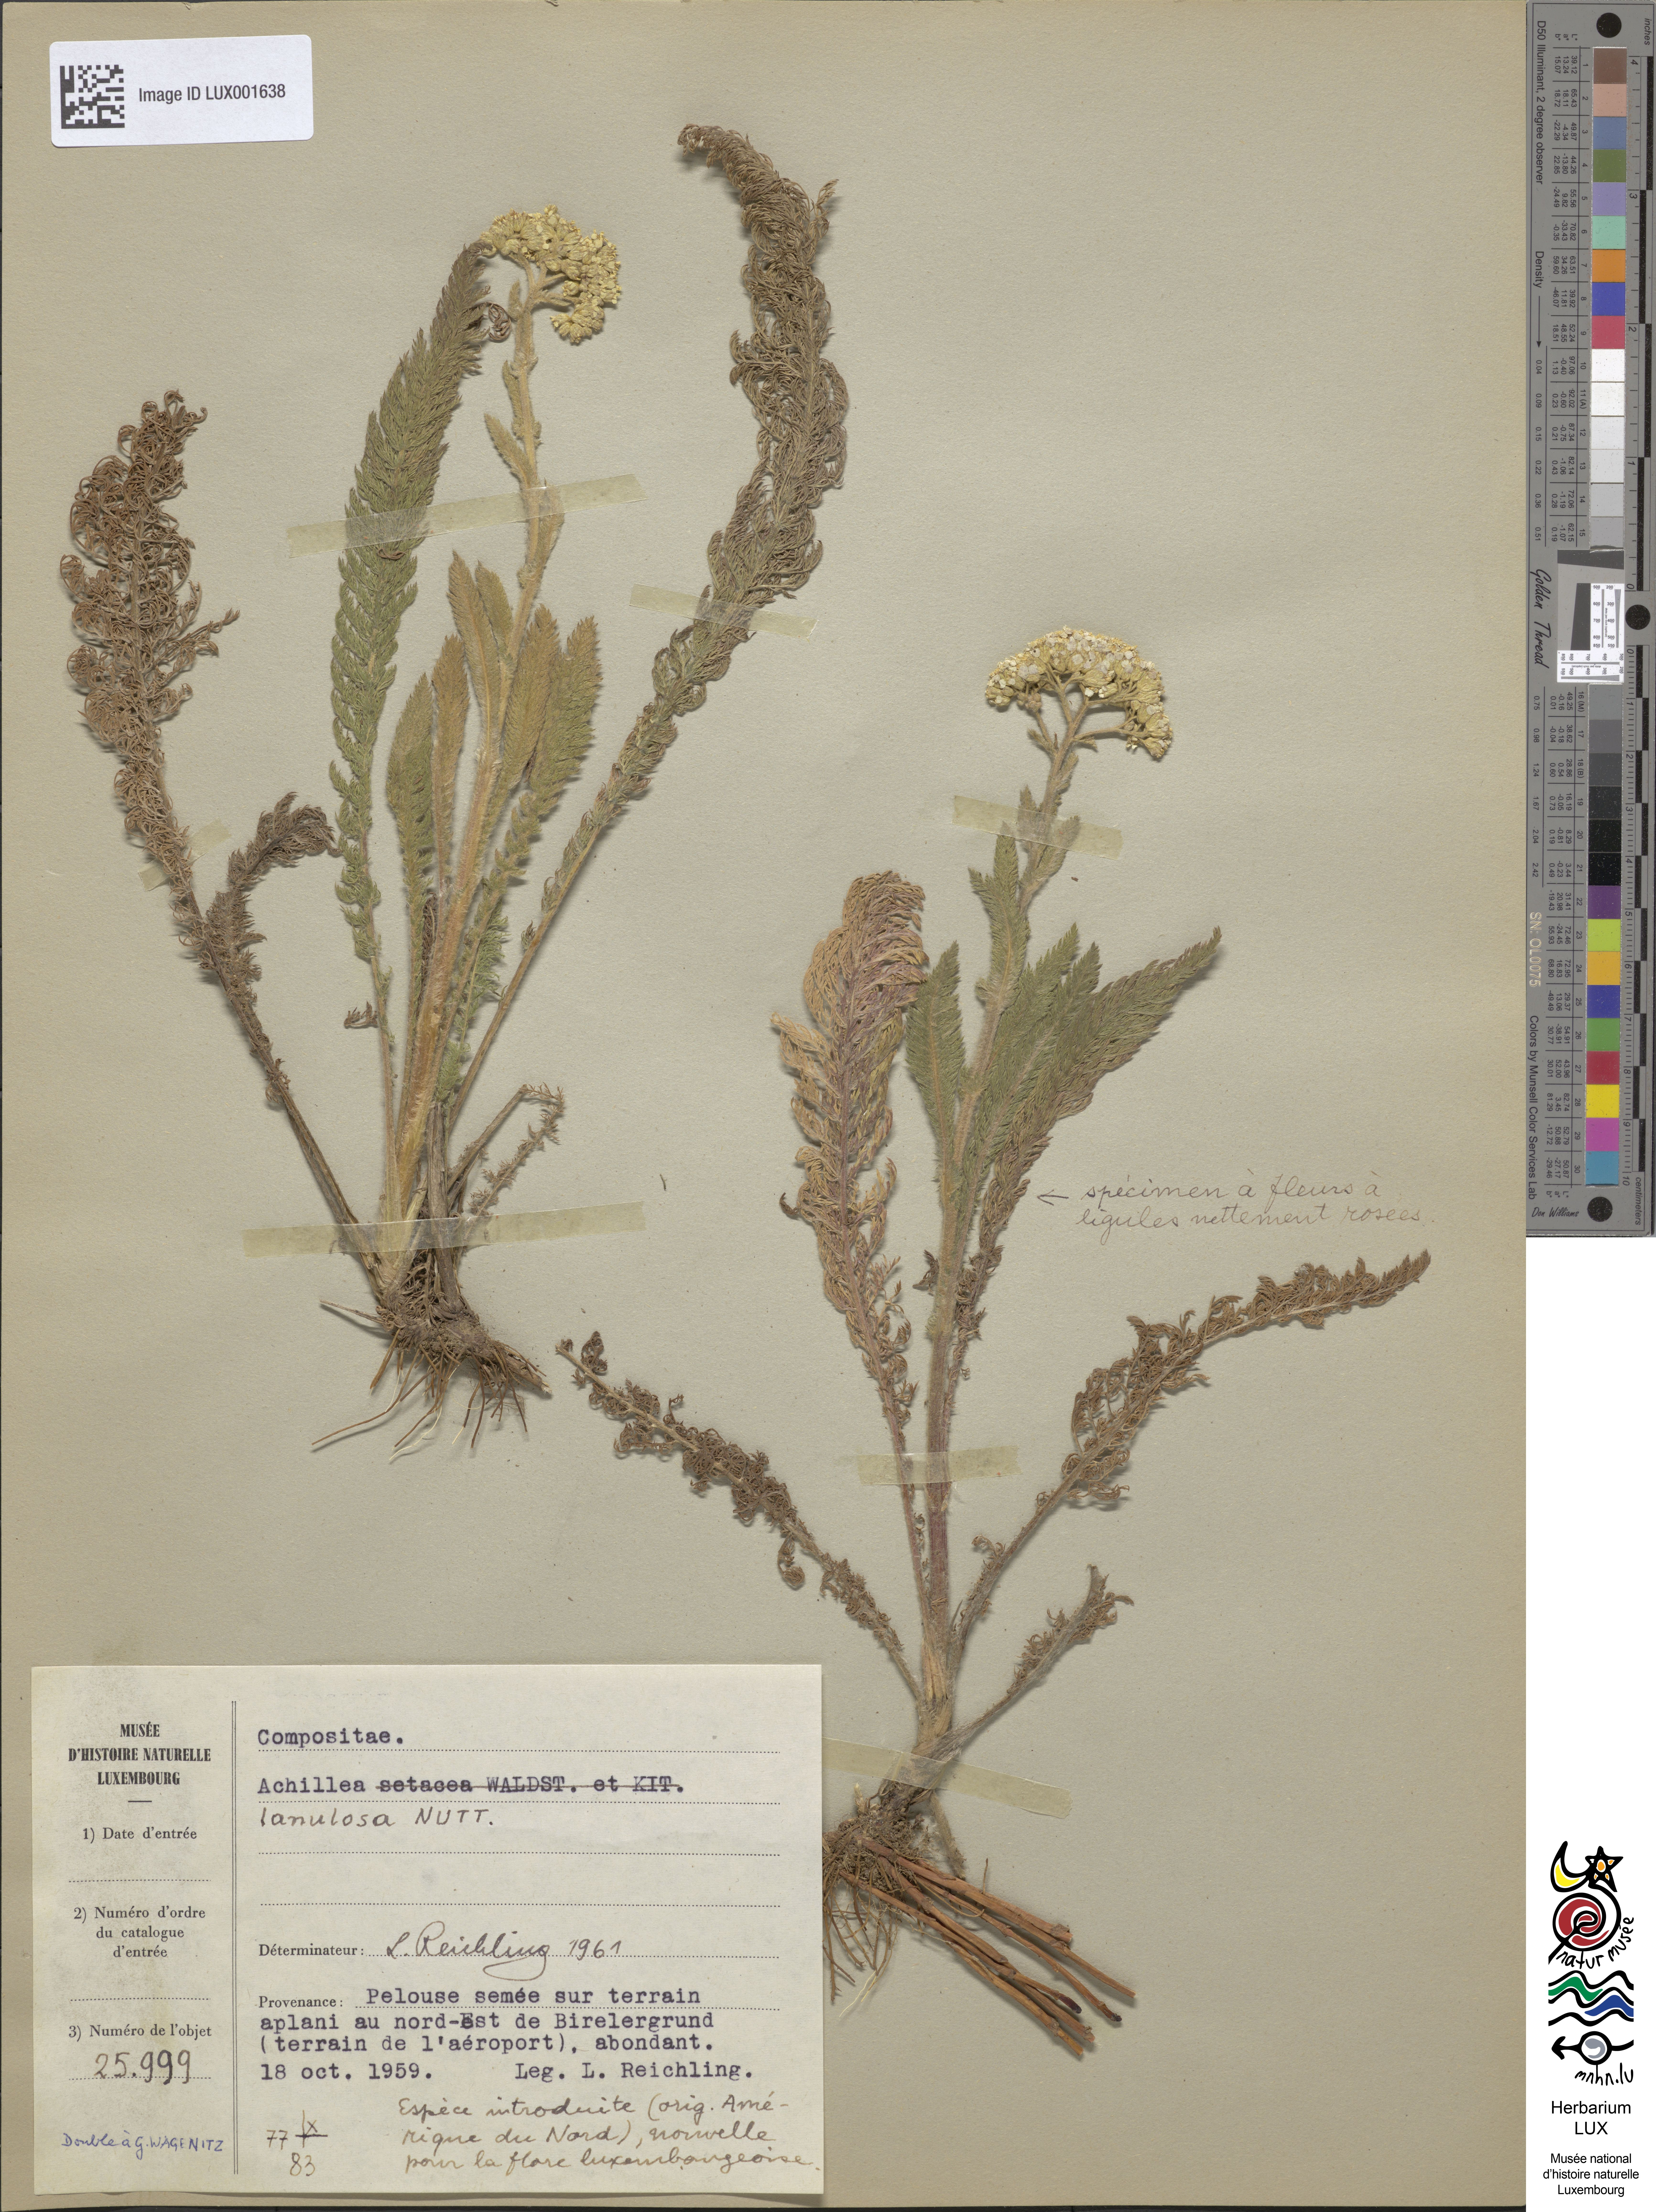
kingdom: Plantae
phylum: Tracheophyta
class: Magnoliopsida
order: Asterales
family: Asteraceae
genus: Achillea
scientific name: Achillea millefolium
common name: Yarrow
